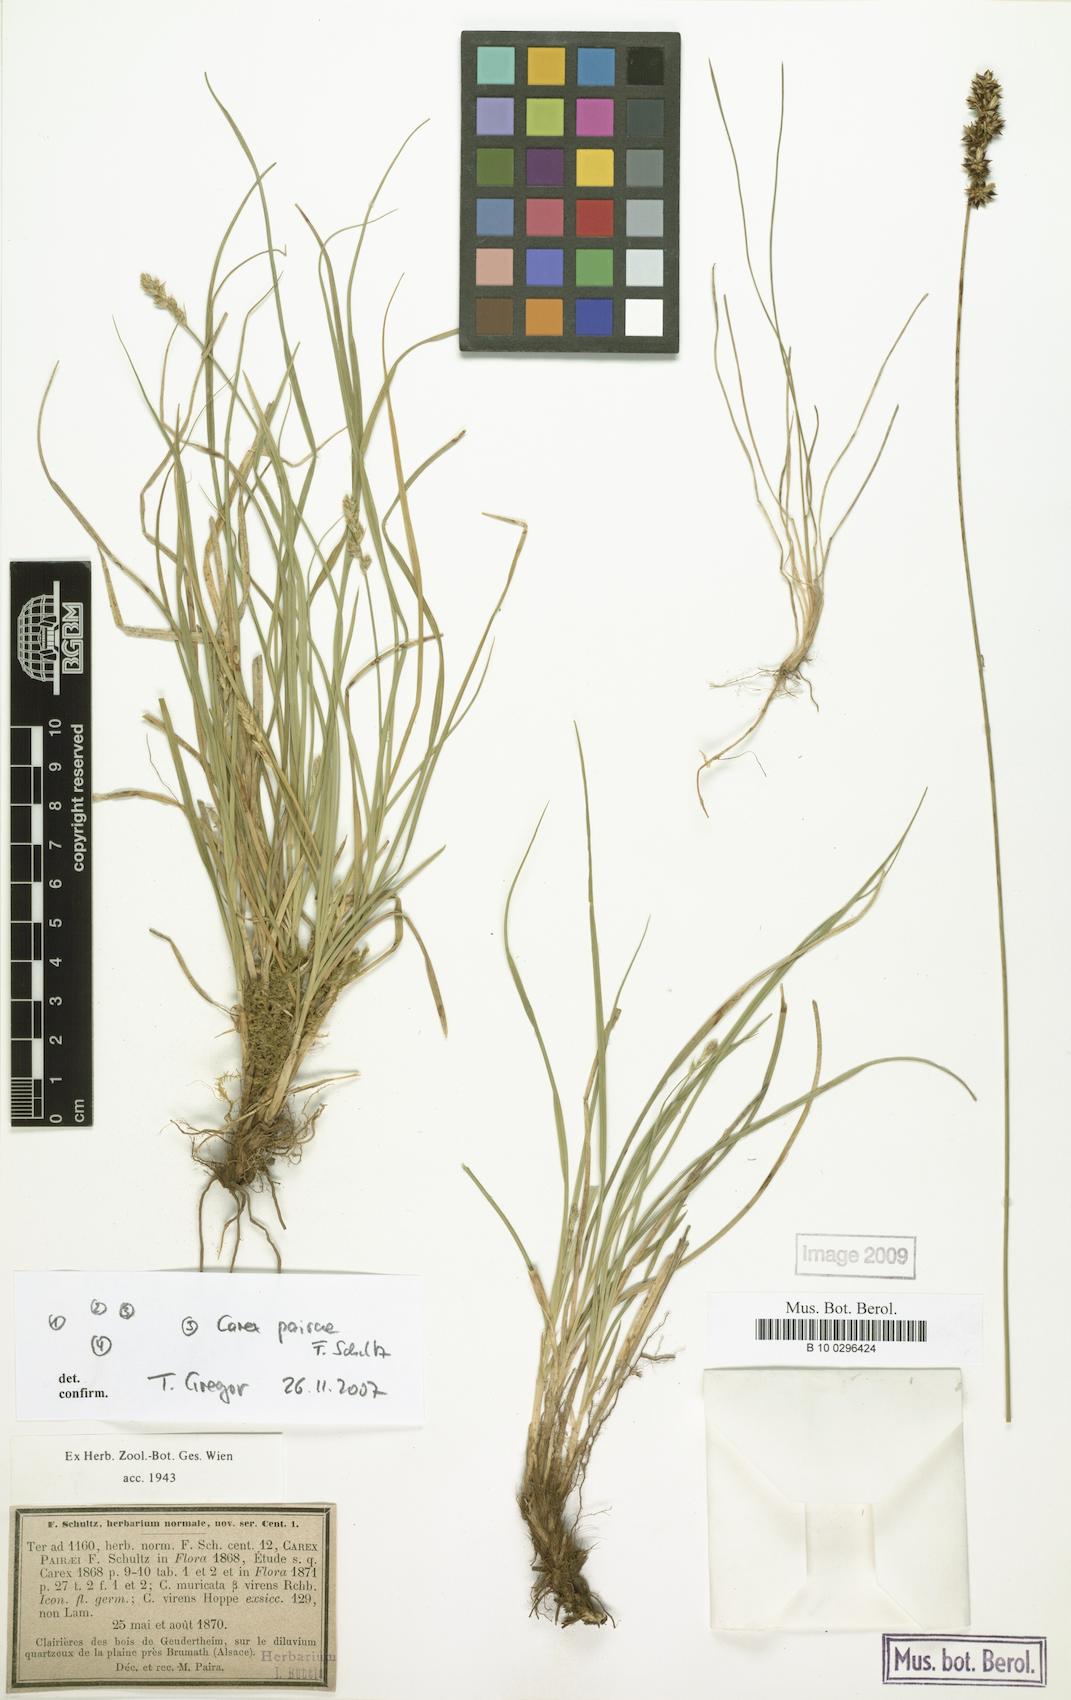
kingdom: Plantae
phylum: Tracheophyta
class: Liliopsida
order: Poales
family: Cyperaceae
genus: Carex
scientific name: Carex pairae
